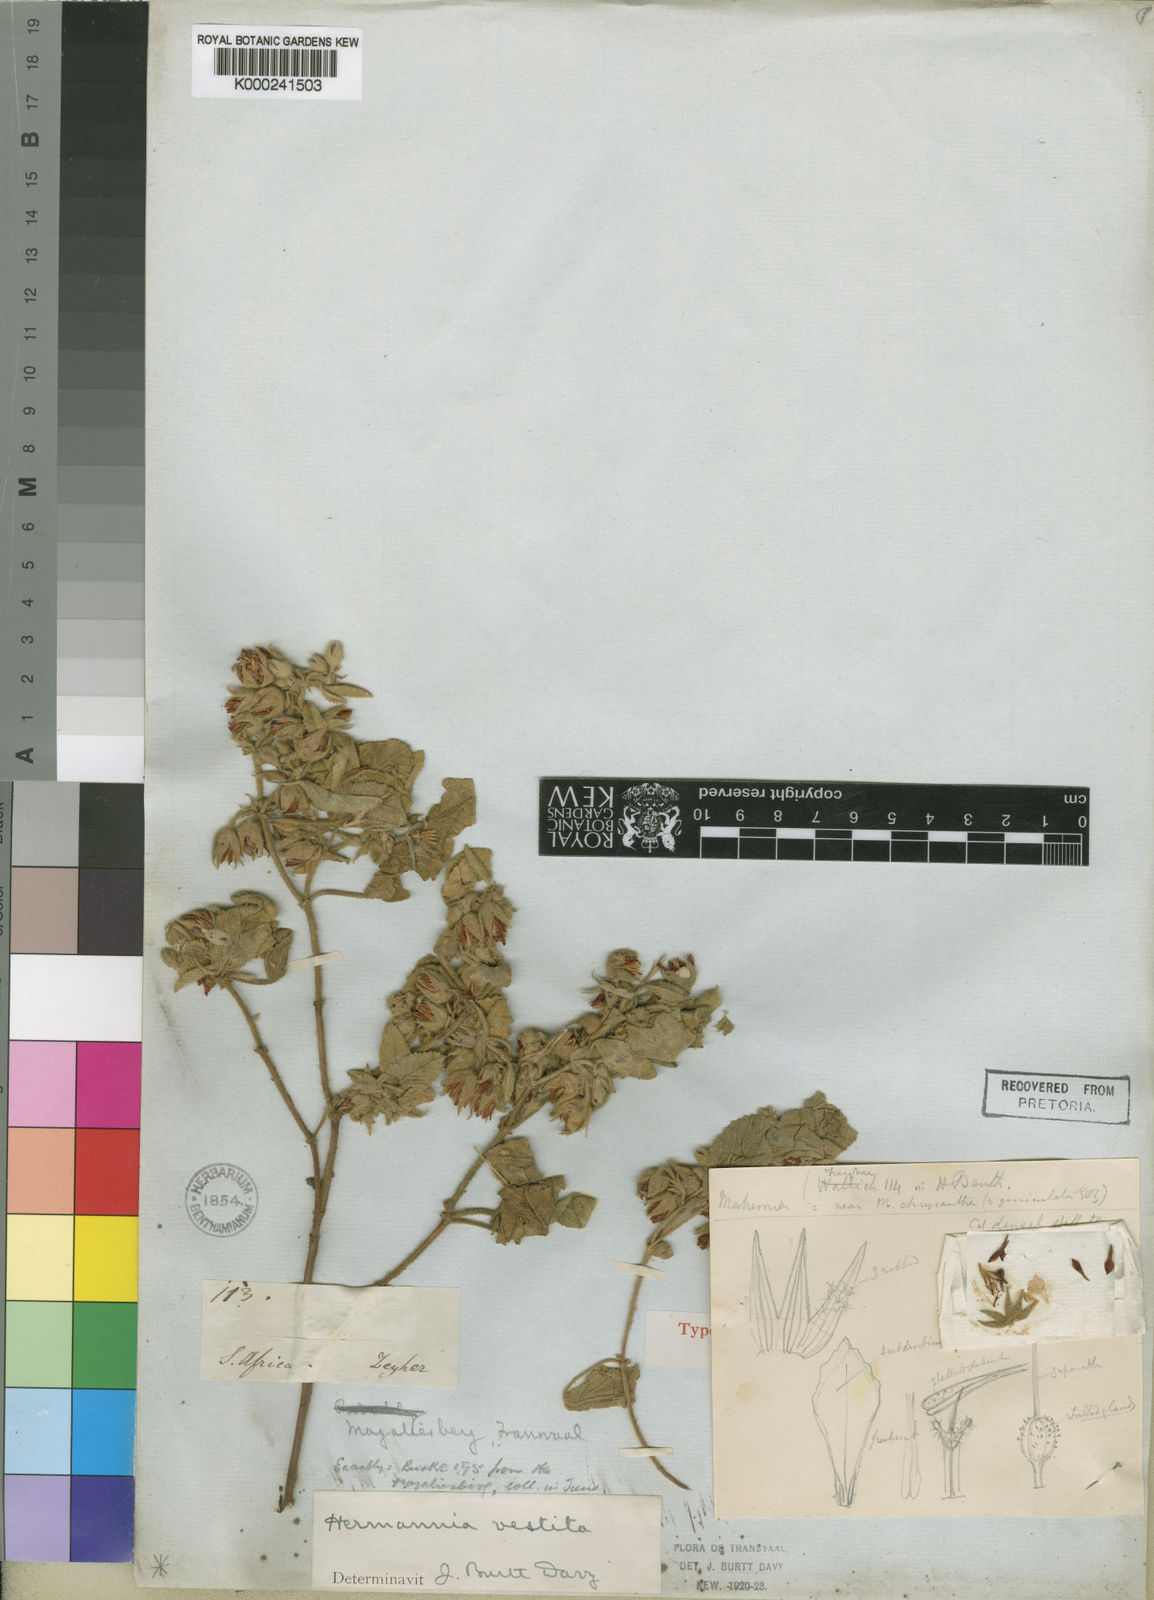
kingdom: Plantae
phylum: Tracheophyta
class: Magnoliopsida
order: Malvales
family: Malvaceae
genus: Hermannia
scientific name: Hermannia
